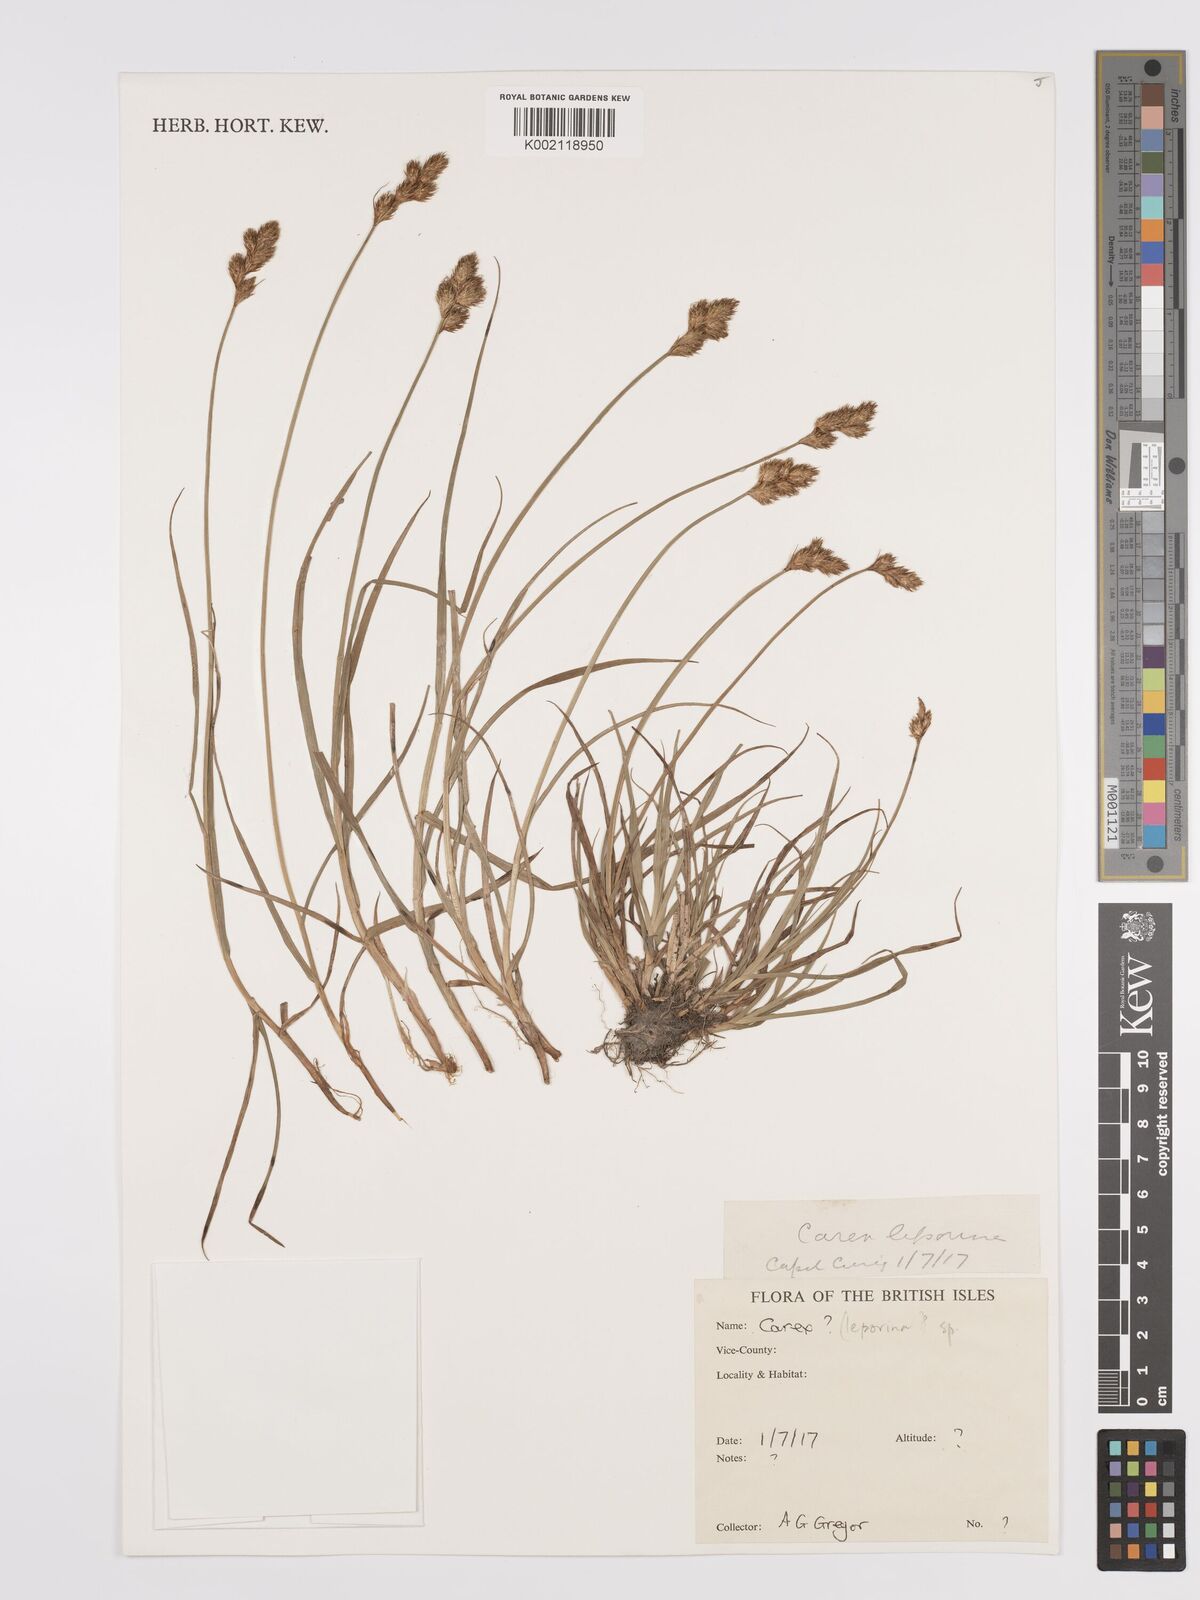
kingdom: Plantae
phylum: Tracheophyta
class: Liliopsida
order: Poales
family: Cyperaceae
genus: Carex
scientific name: Carex leporina
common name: Oval sedge
